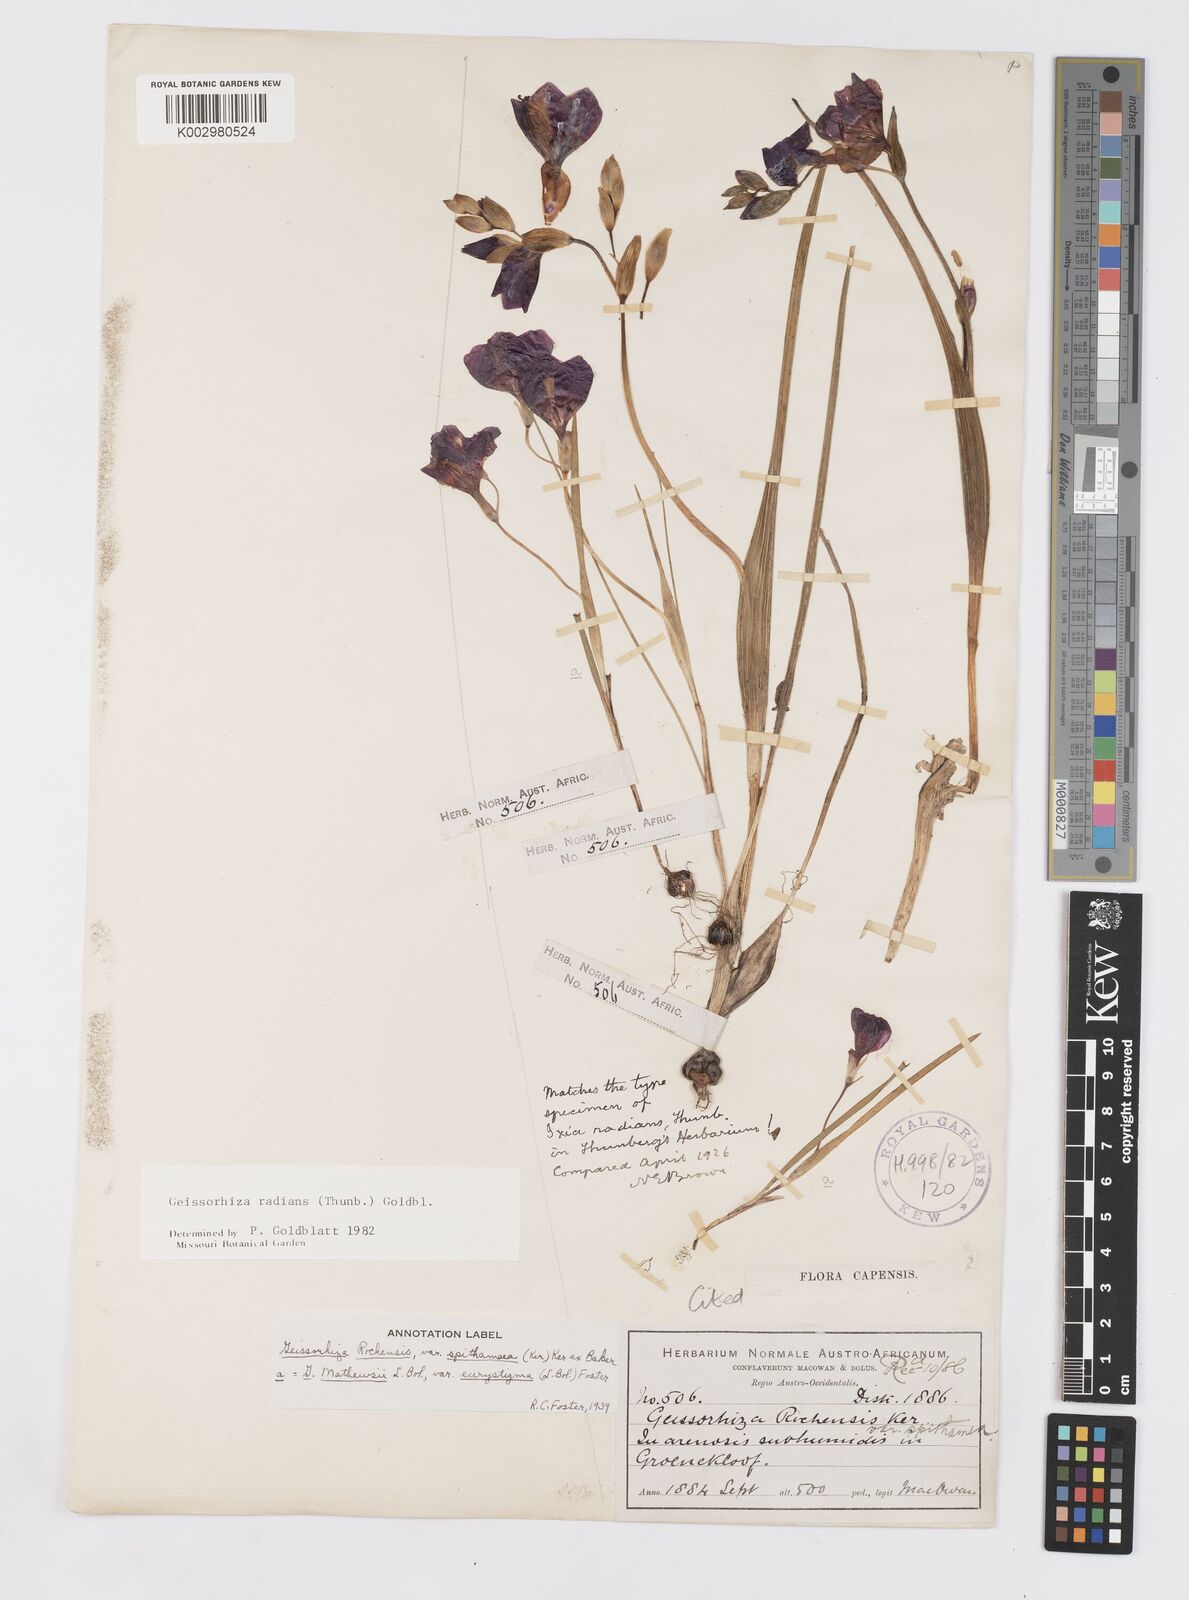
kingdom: Plantae
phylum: Tracheophyta
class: Liliopsida
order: Asparagales
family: Iridaceae
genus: Geissorhiza
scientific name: Geissorhiza radians
